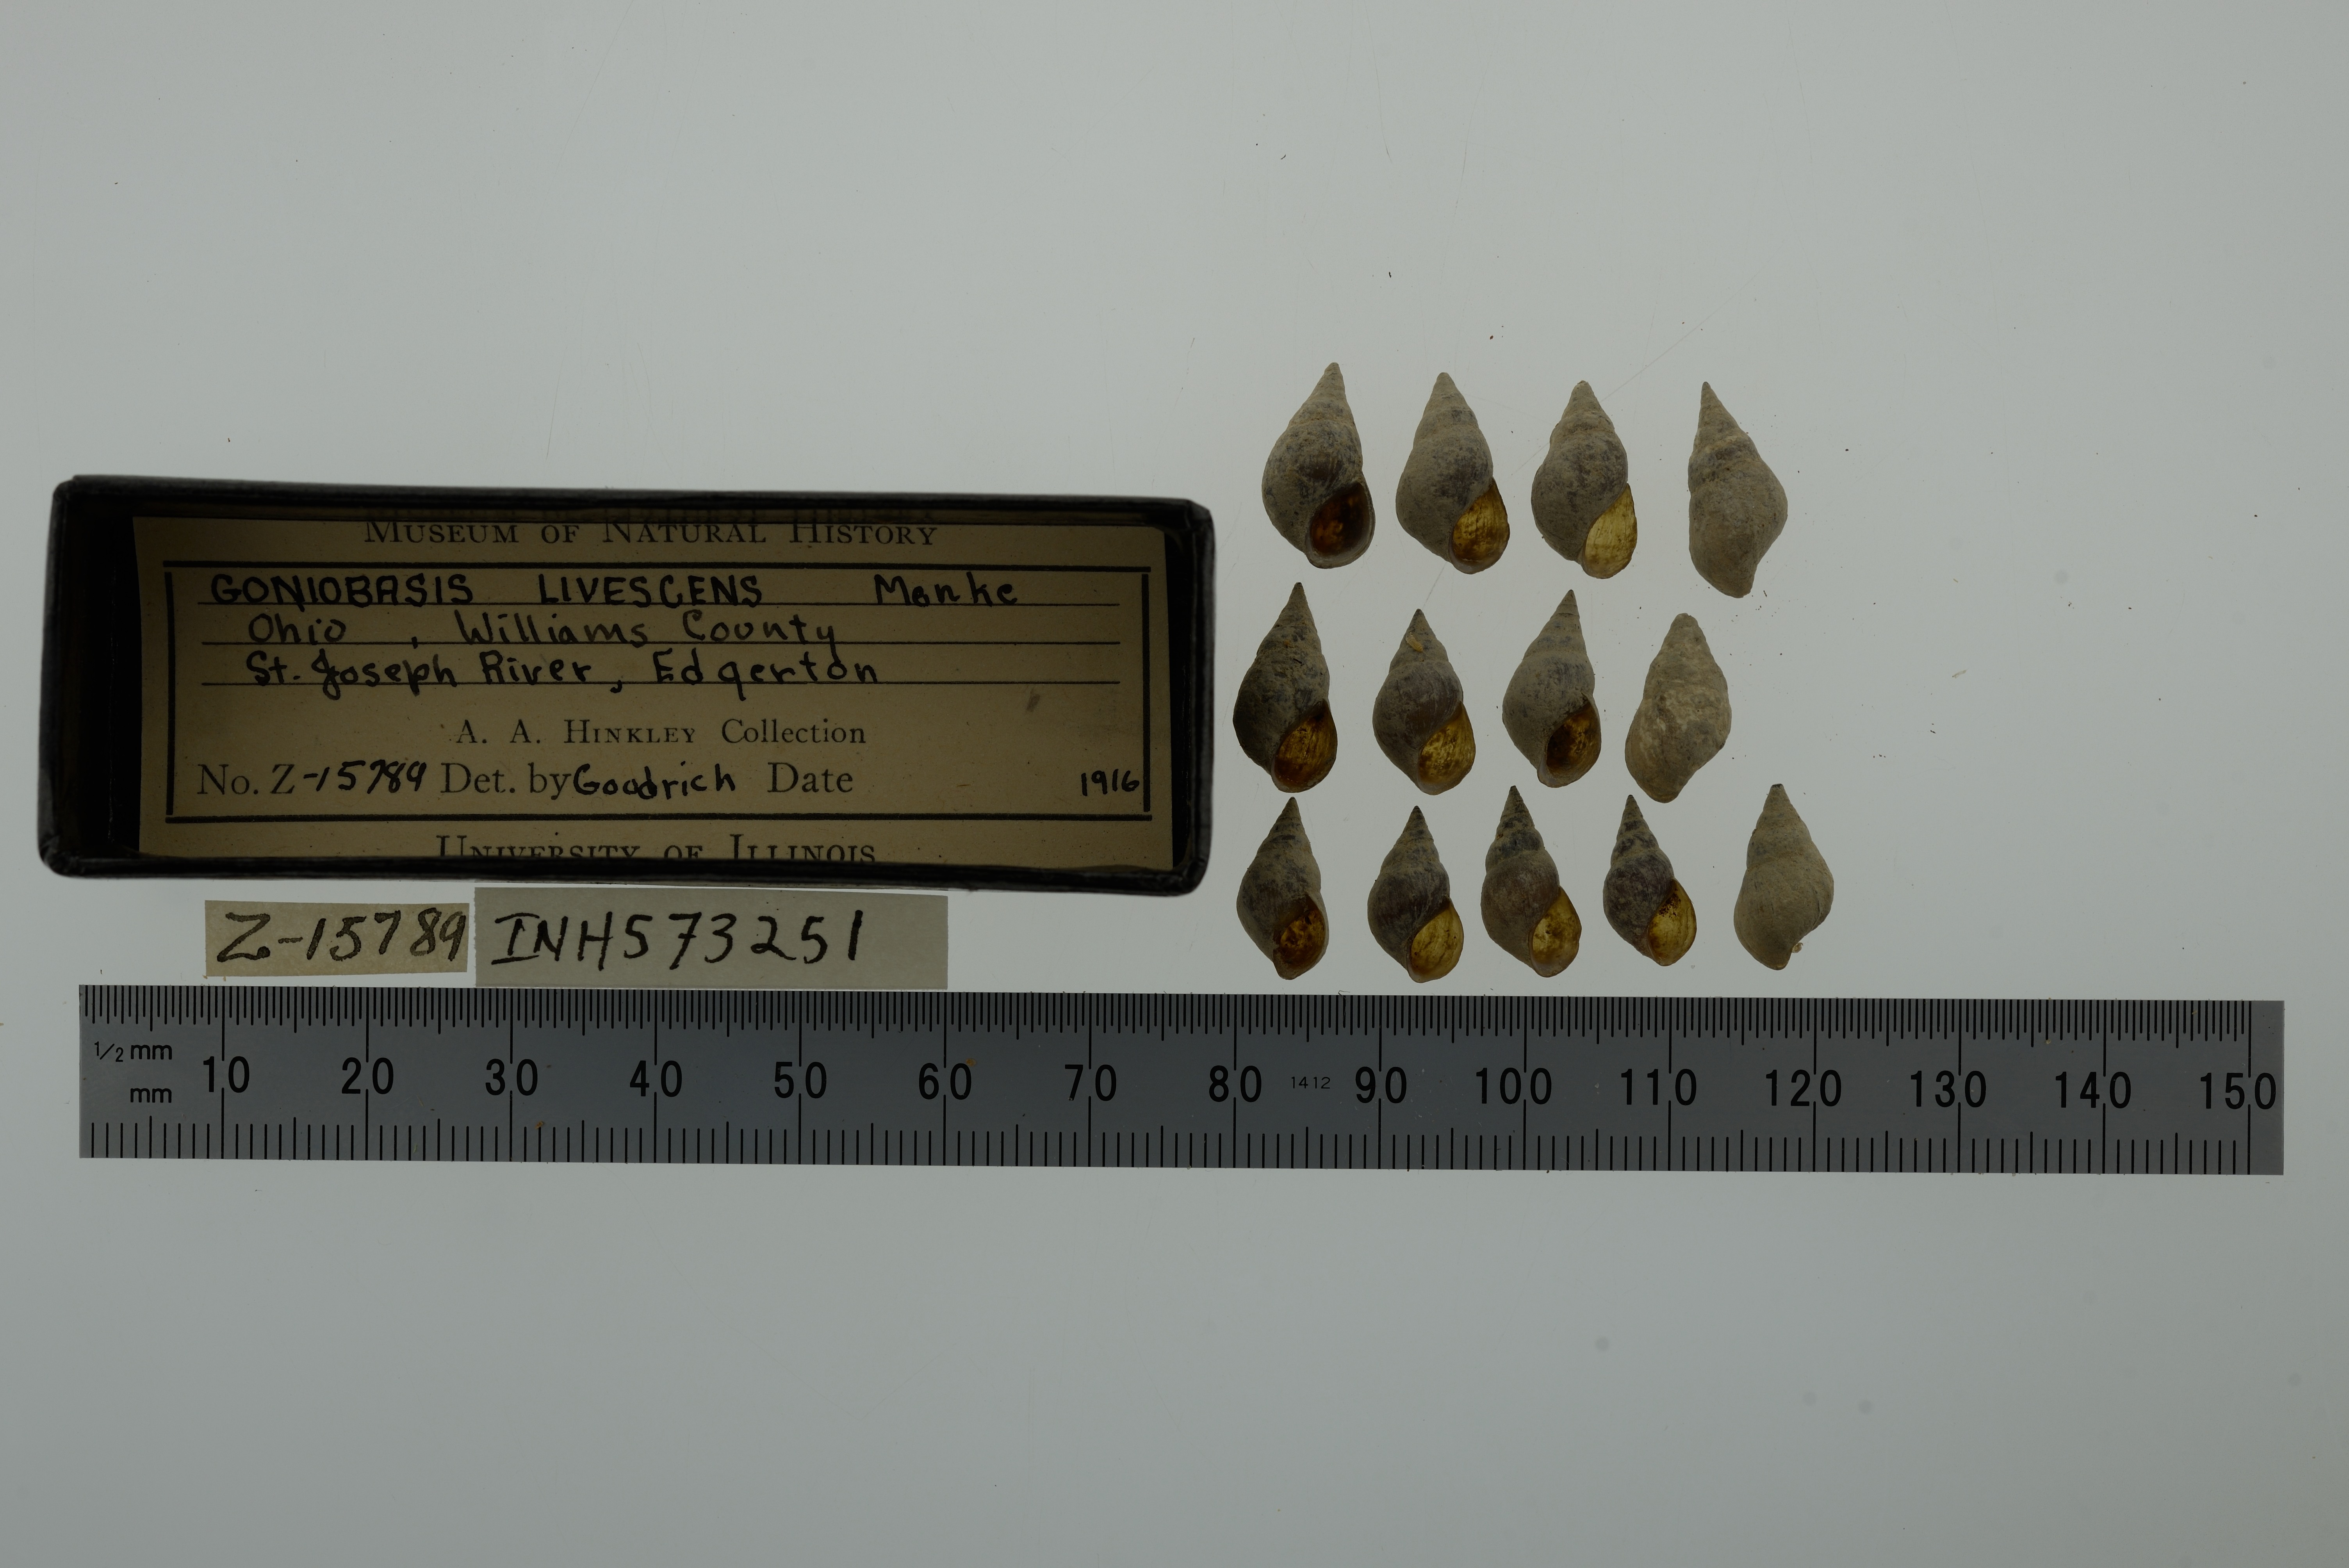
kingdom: Animalia
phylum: Mollusca
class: Gastropoda
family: Pleuroceridae
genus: Elimia
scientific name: Elimia livescens
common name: Liver elimia
